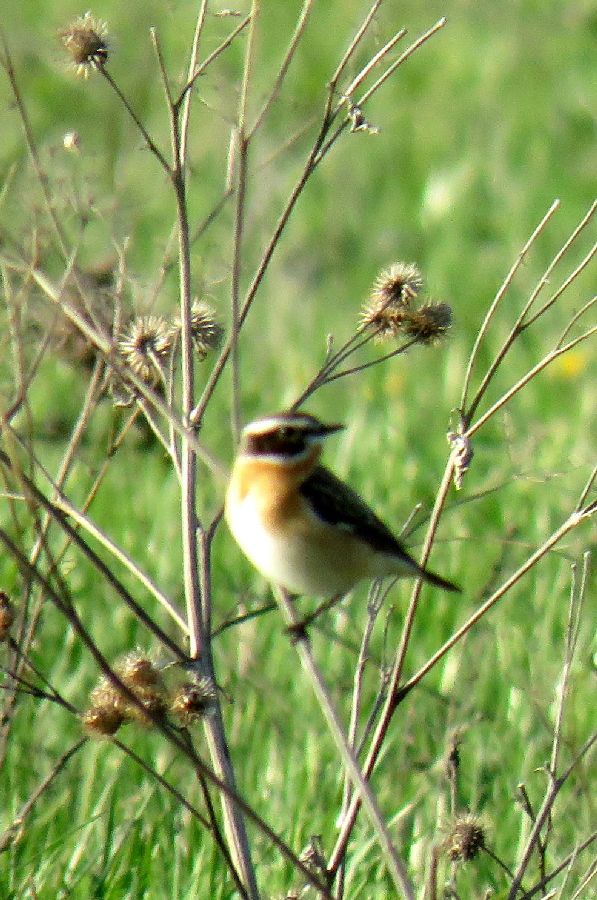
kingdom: Animalia
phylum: Chordata
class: Aves
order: Passeriformes
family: Muscicapidae
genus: Saxicola
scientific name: Saxicola rubetra
